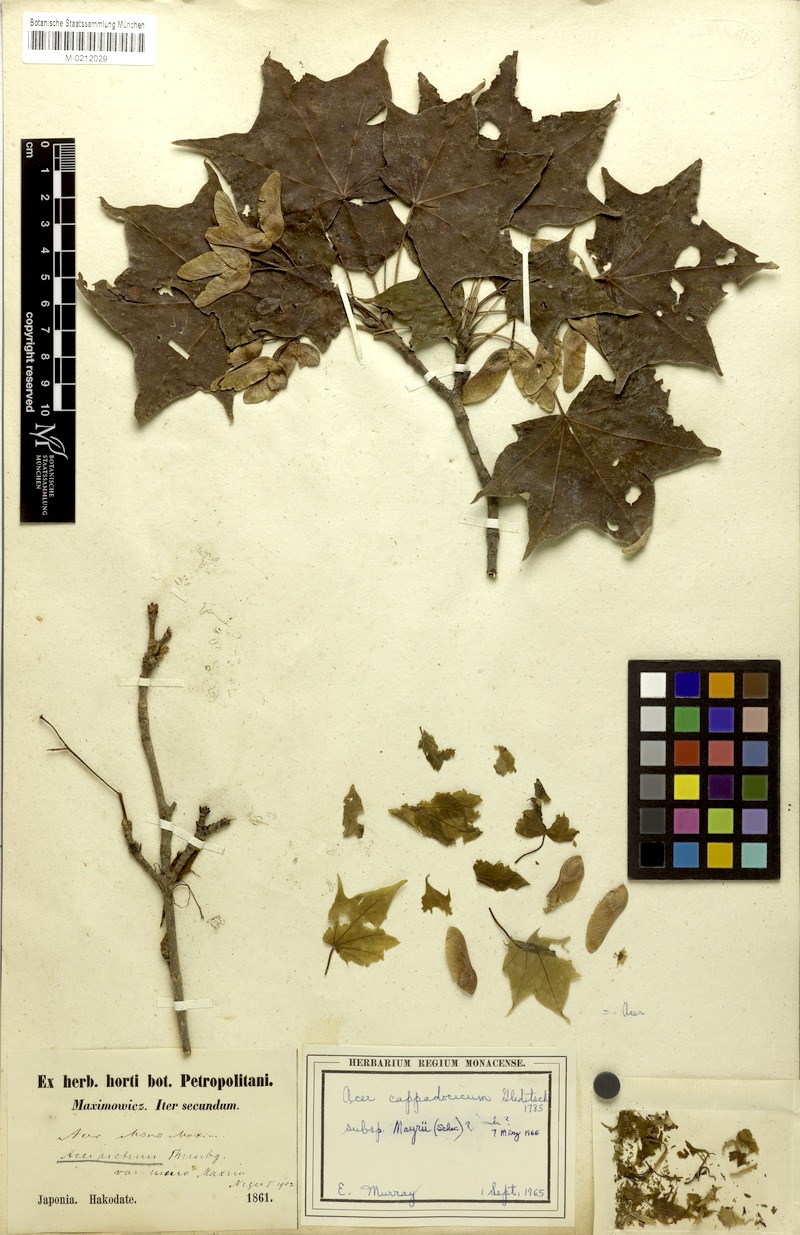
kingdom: Plantae
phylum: Tracheophyta
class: Magnoliopsida
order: Sapindales
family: Sapindaceae
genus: Acer
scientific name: Acer pictum
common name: The painted maple
